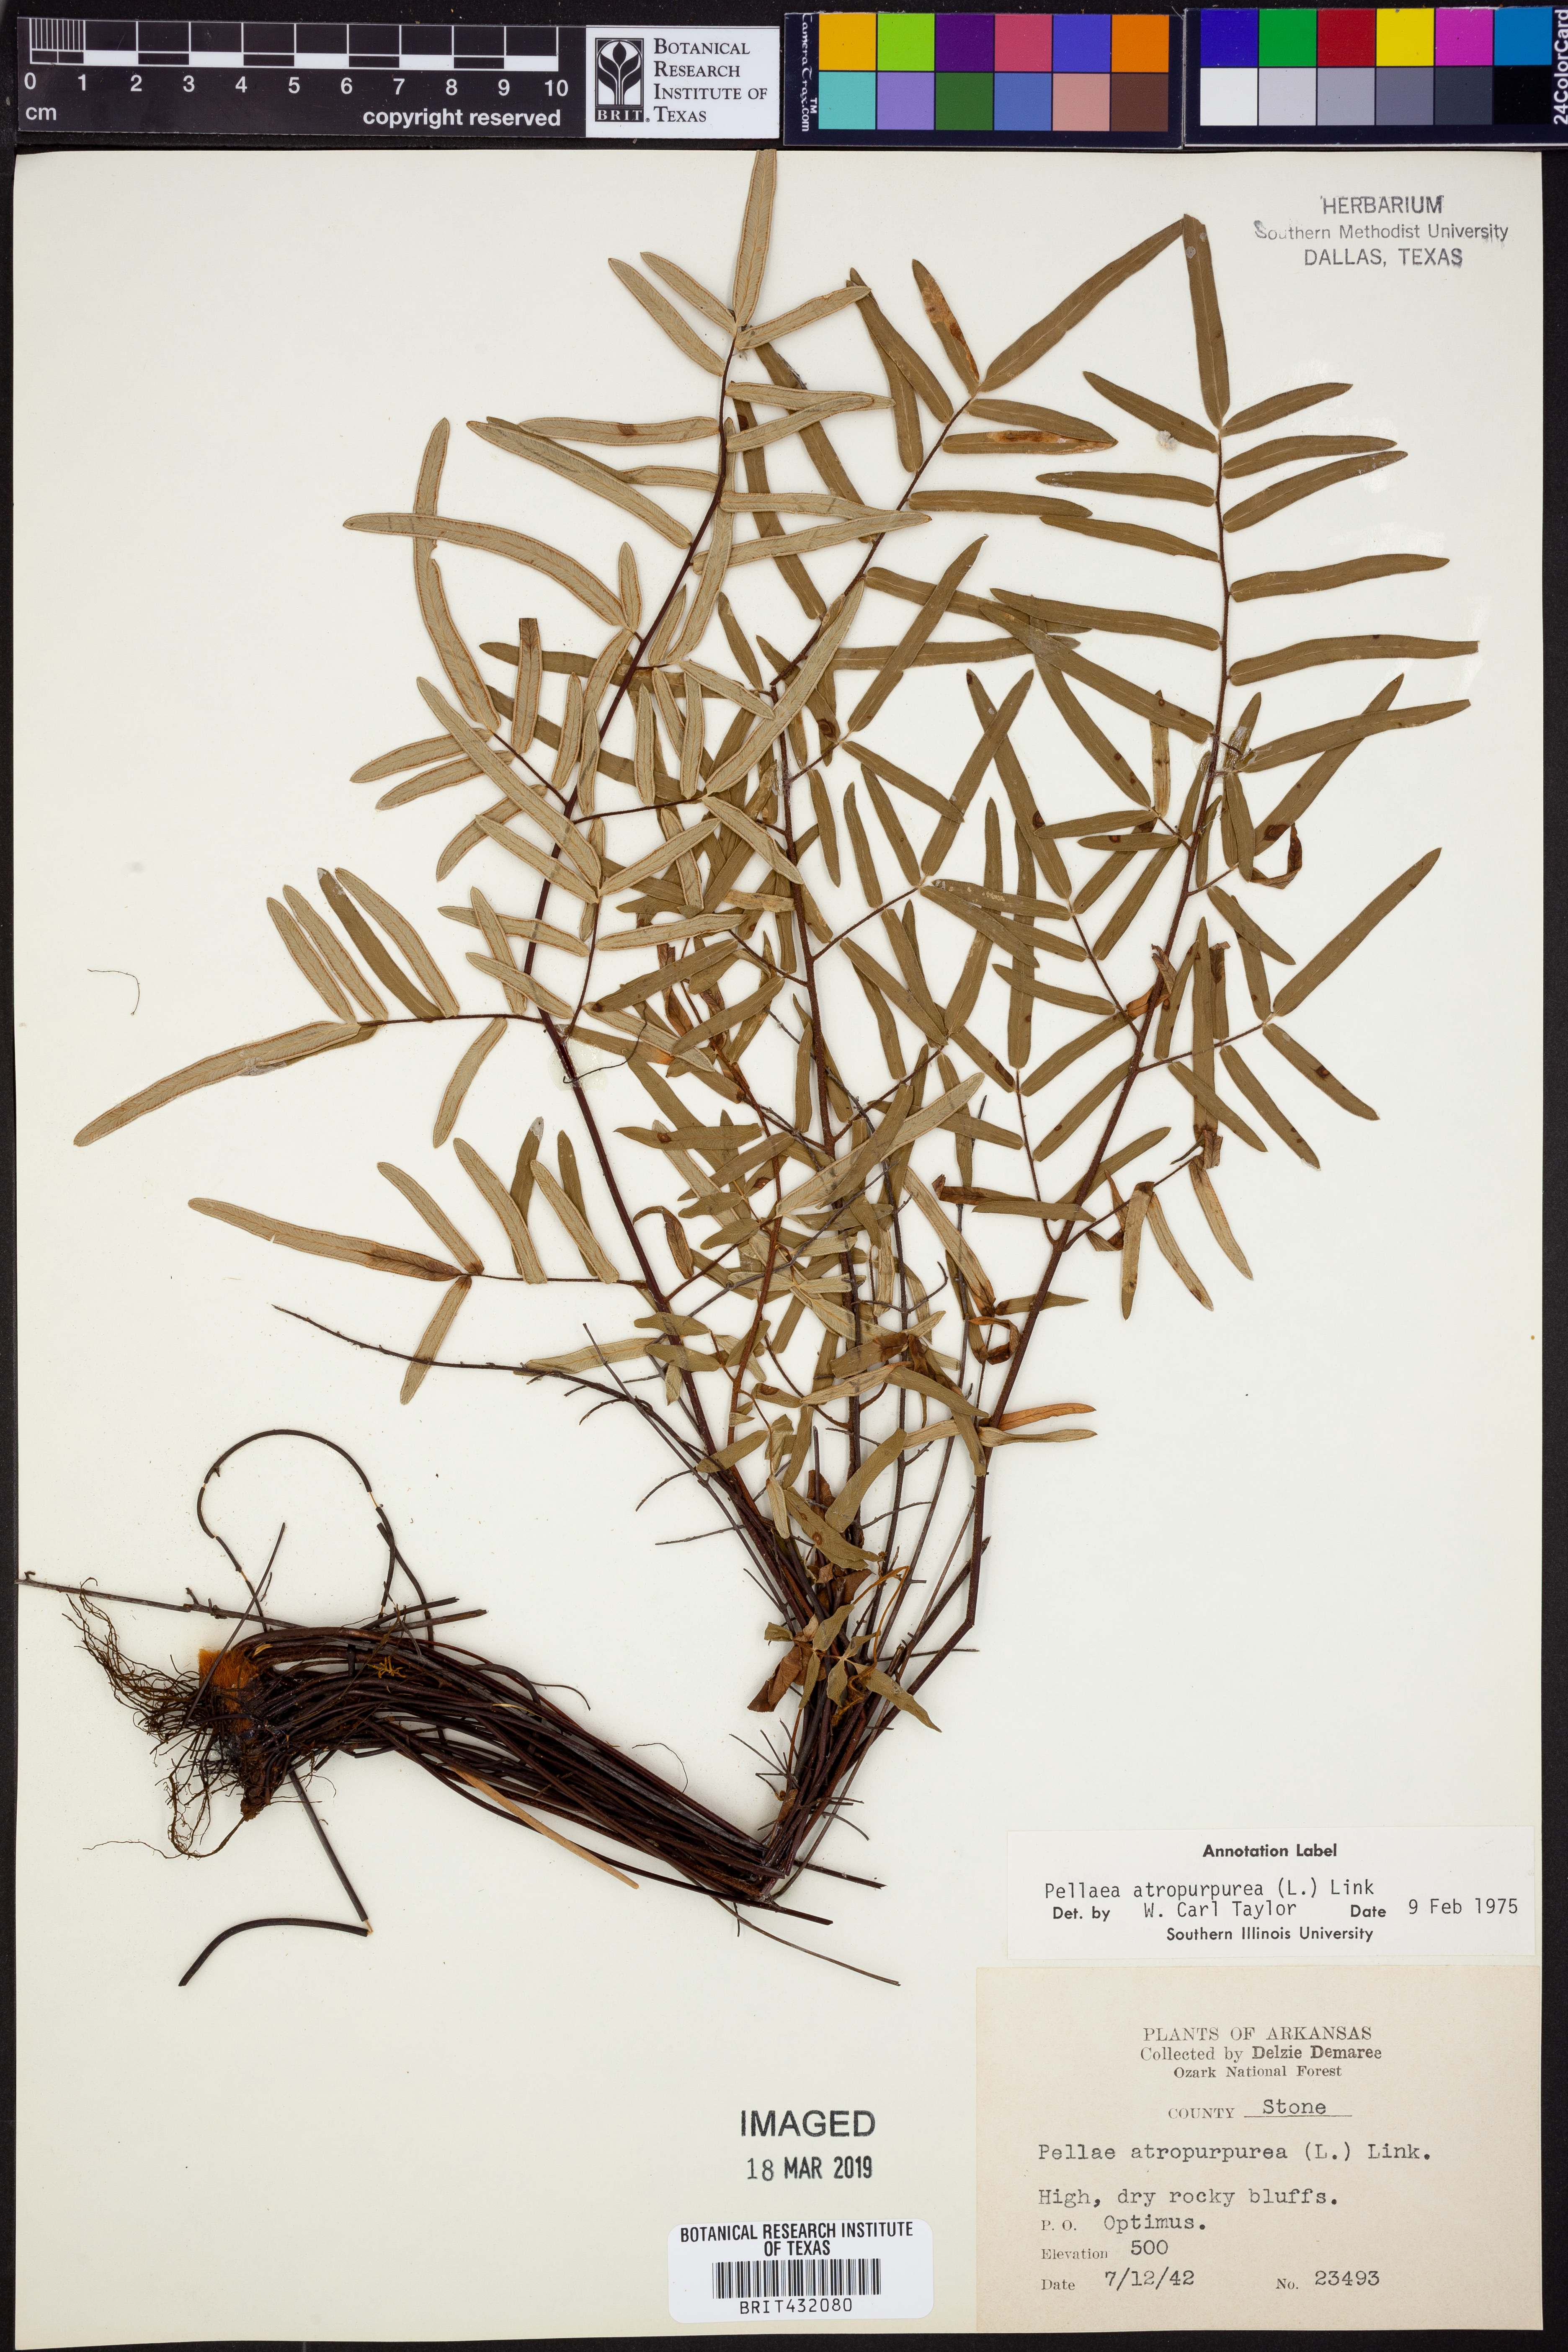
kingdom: Plantae
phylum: Tracheophyta
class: Polypodiopsida
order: Polypodiales
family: Pteridaceae
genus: Pellaea
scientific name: Pellaea atropurpurea
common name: Hairy cliffbrake
